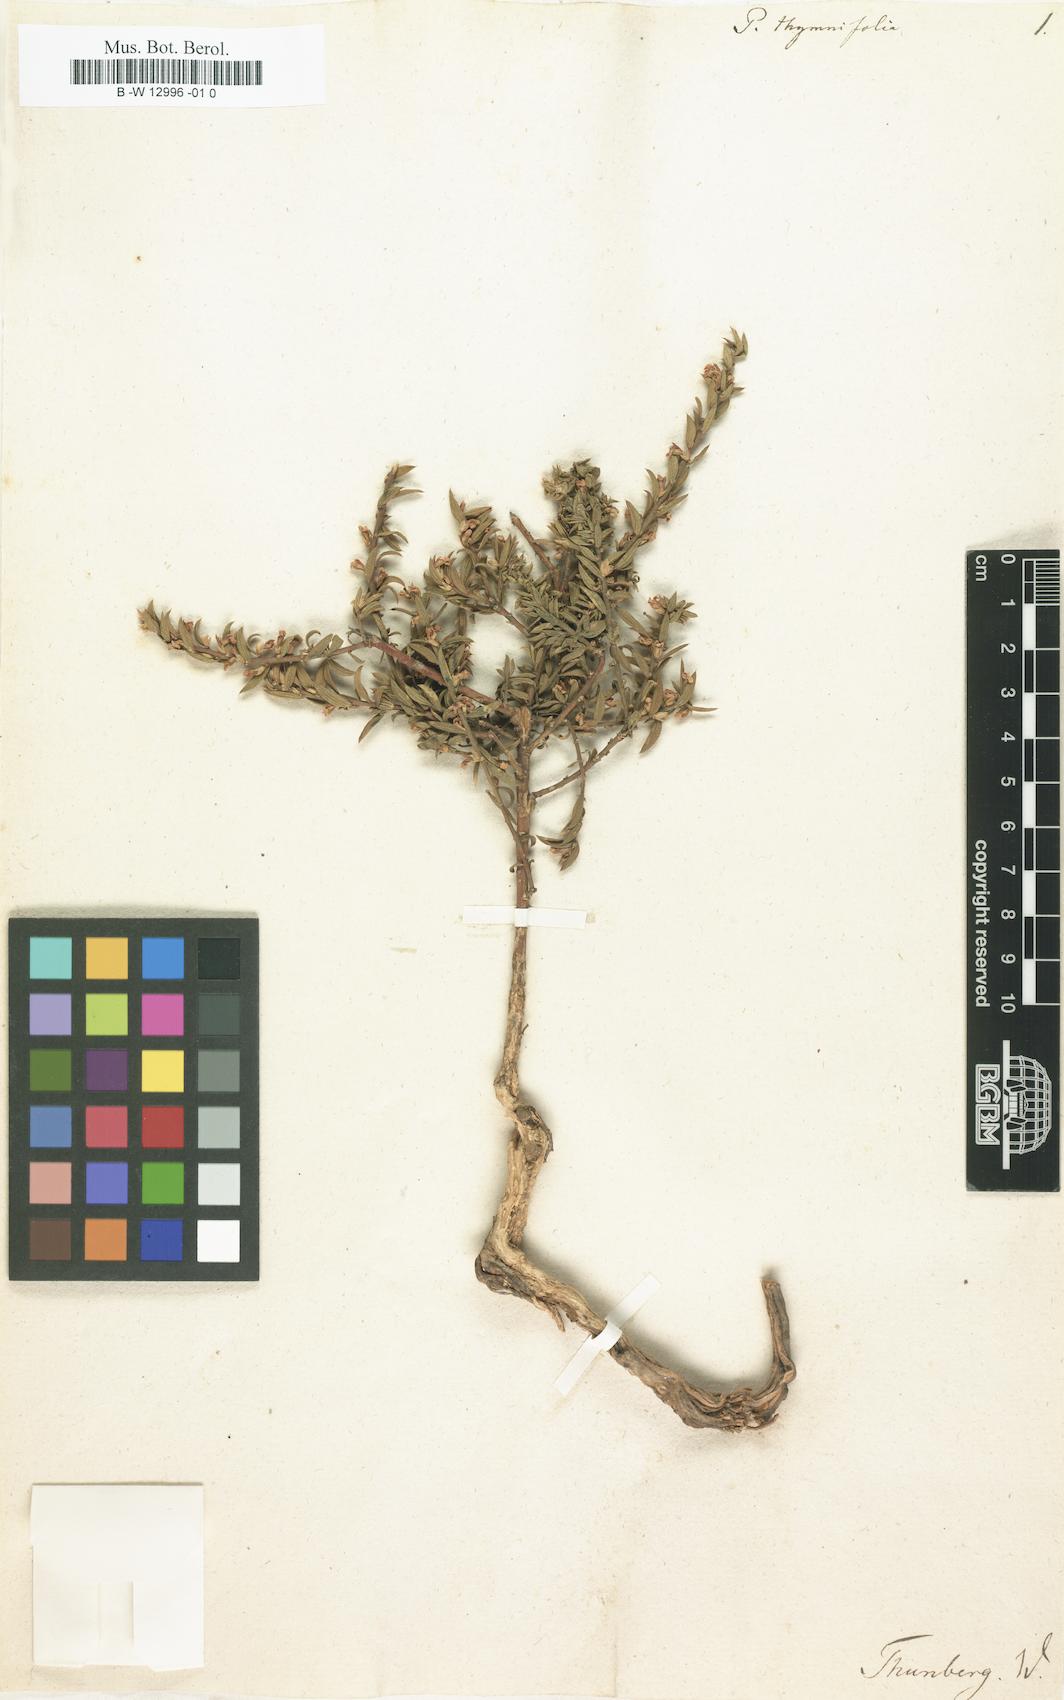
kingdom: Plantae
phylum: Tracheophyta
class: Magnoliopsida
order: Fabales
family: Polygalaceae
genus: Muraltia
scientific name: Muraltia thymifolia
